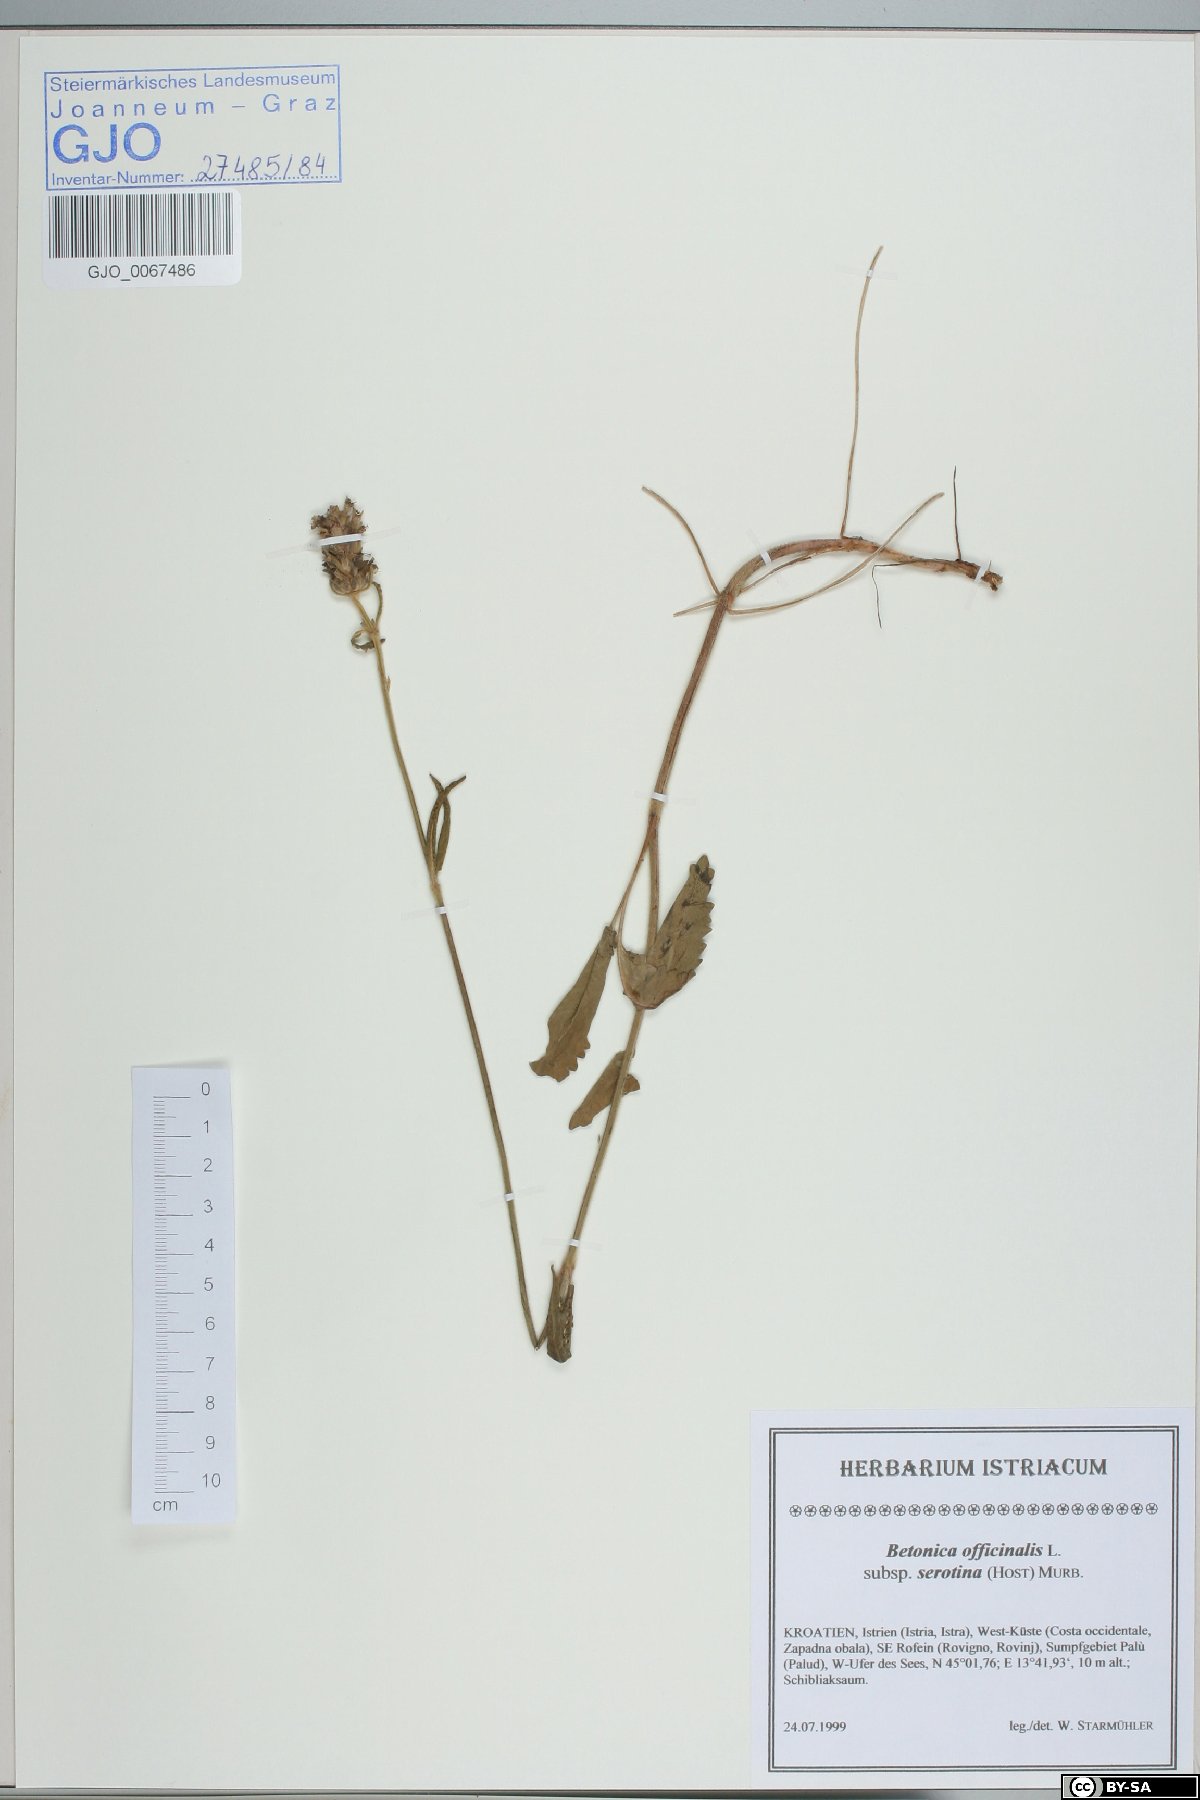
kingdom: Plantae
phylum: Tracheophyta
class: Magnoliopsida
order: Lamiales
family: Lamiaceae
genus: Betonica
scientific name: Betonica officinalis
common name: Bishop's-wort
